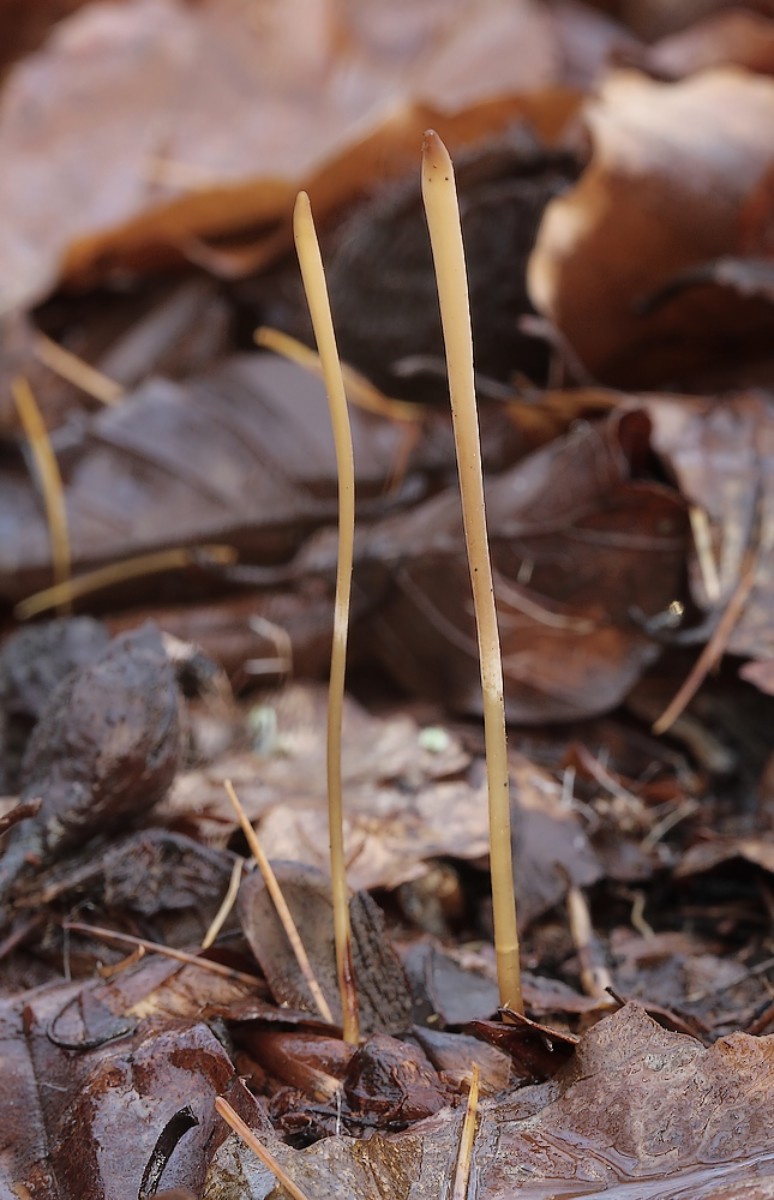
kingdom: Fungi
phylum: Basidiomycota
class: Agaricomycetes
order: Agaricales
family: Typhulaceae
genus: Typhula
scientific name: Typhula fistulosa
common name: pibet rørkølle
